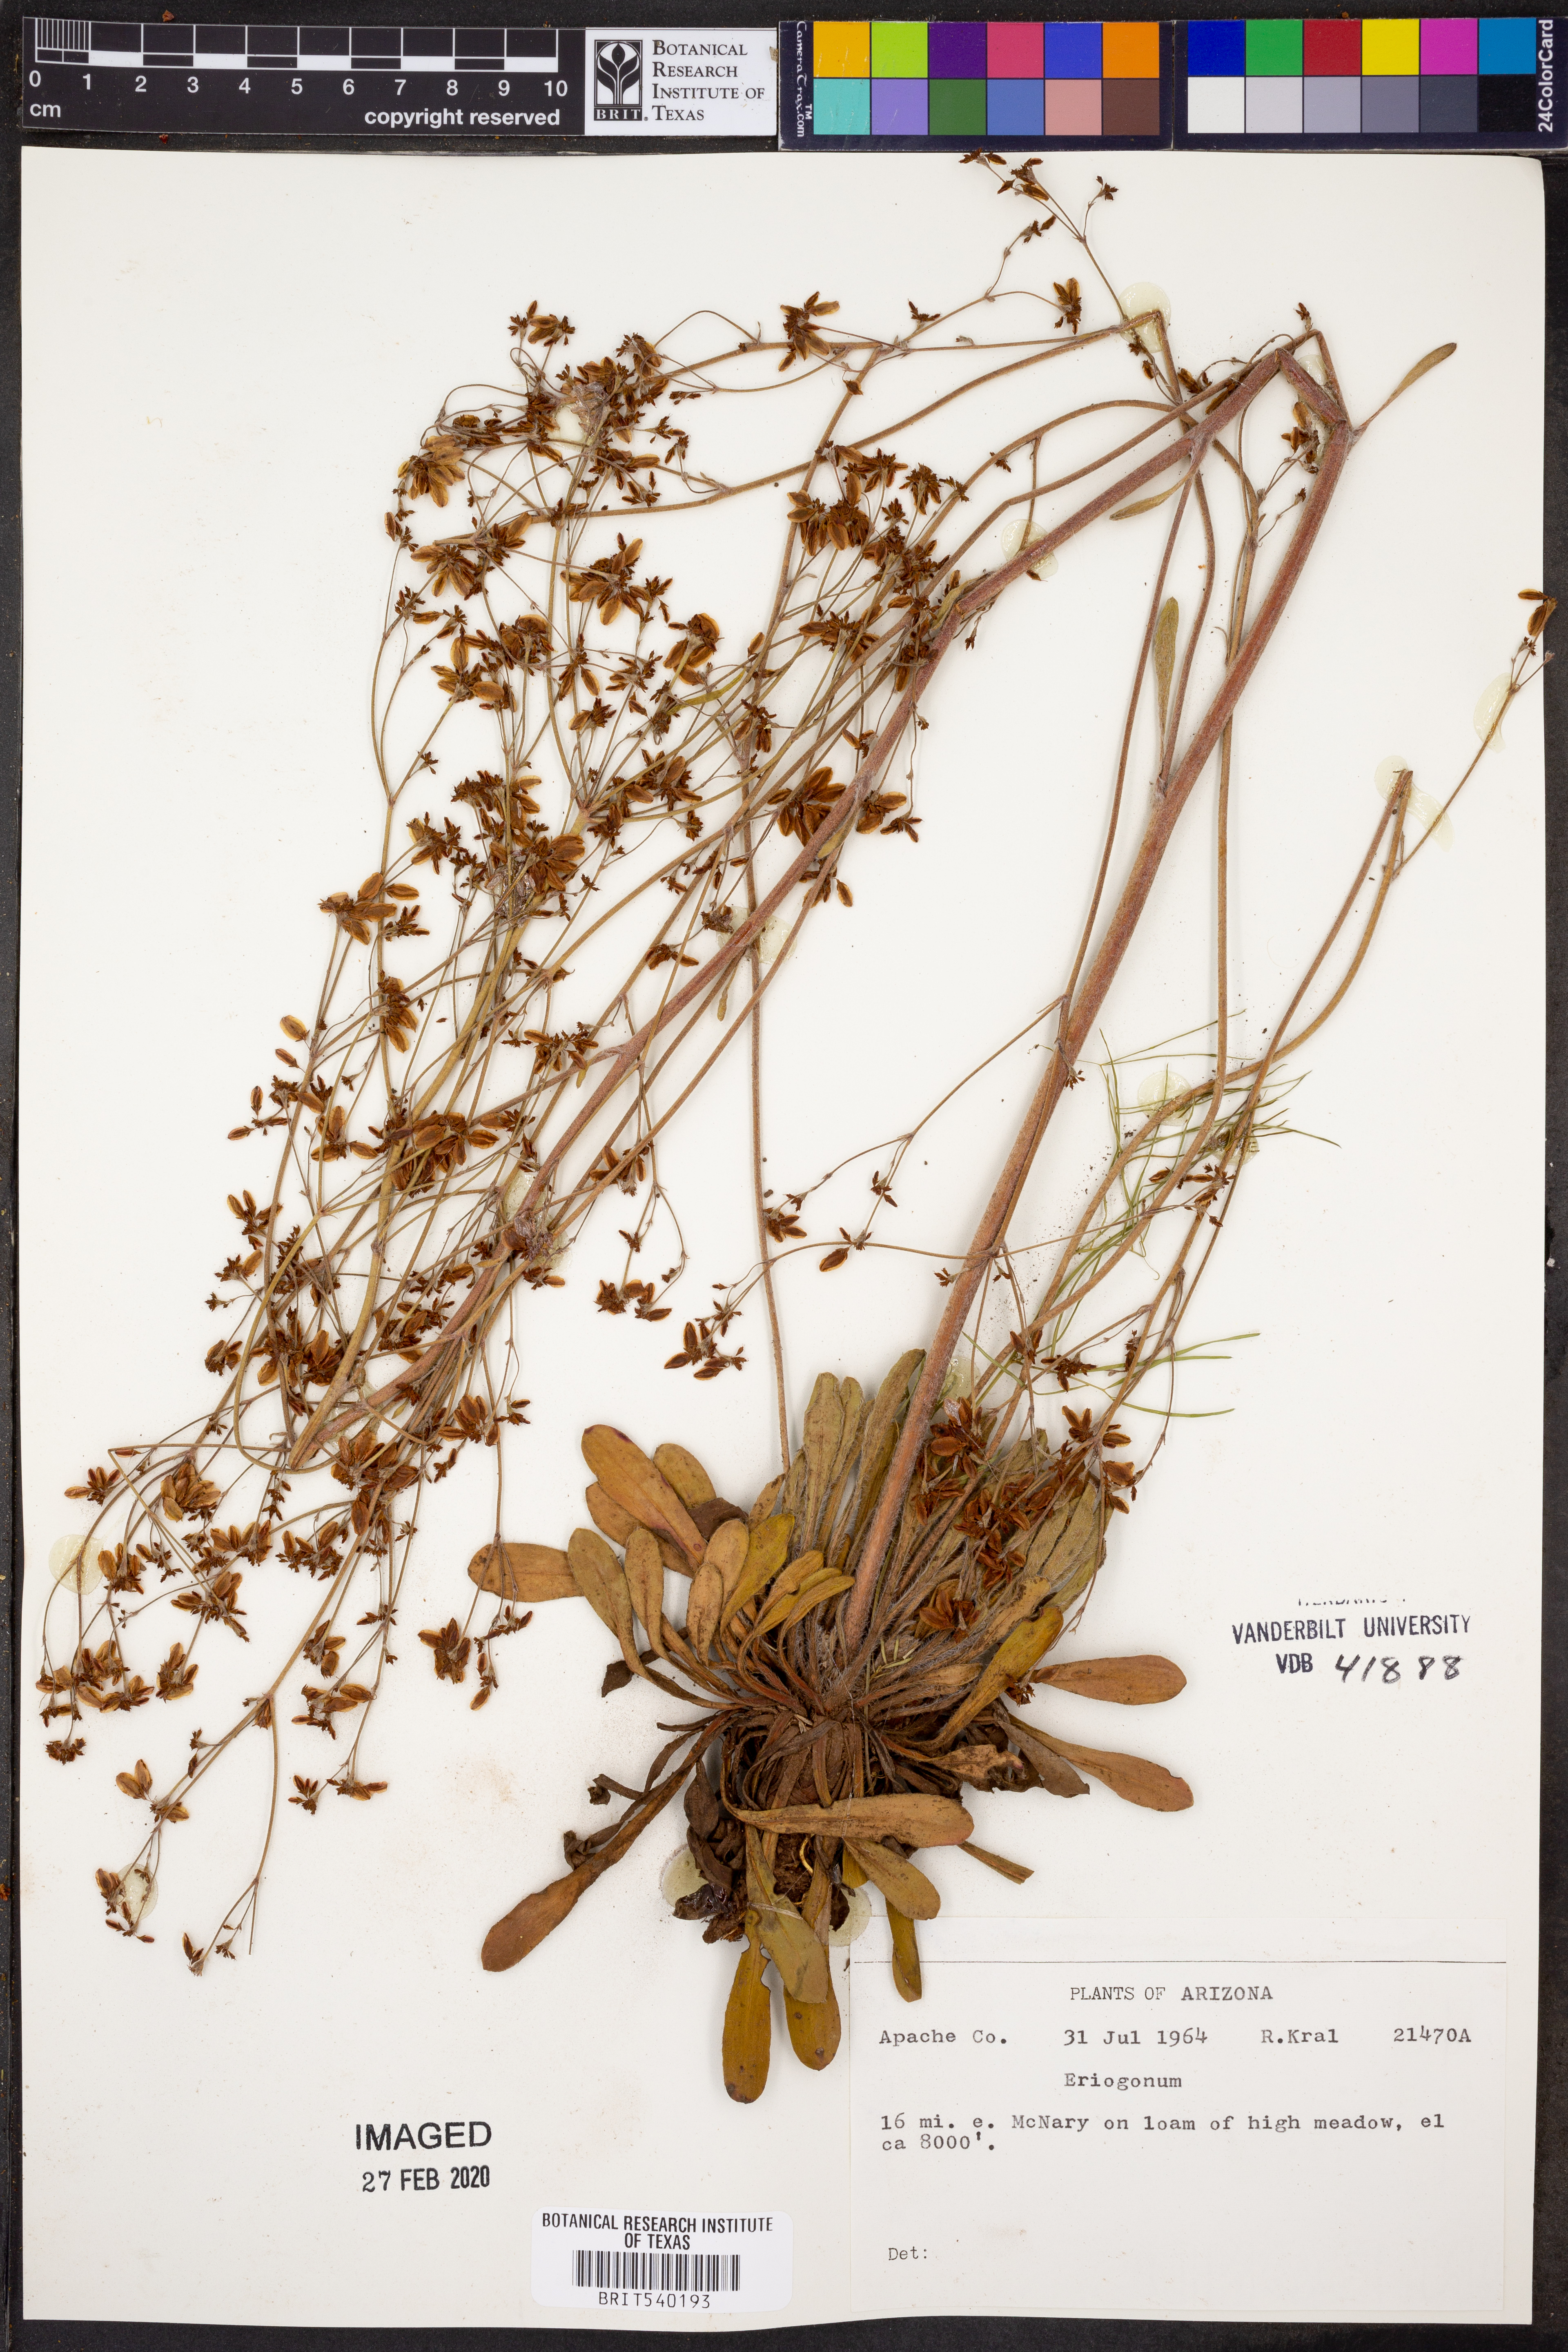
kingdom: Plantae
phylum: Tracheophyta
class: Magnoliopsida
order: Caryophyllales
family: Polygonaceae
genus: Eriogonum
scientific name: Eriogonum
